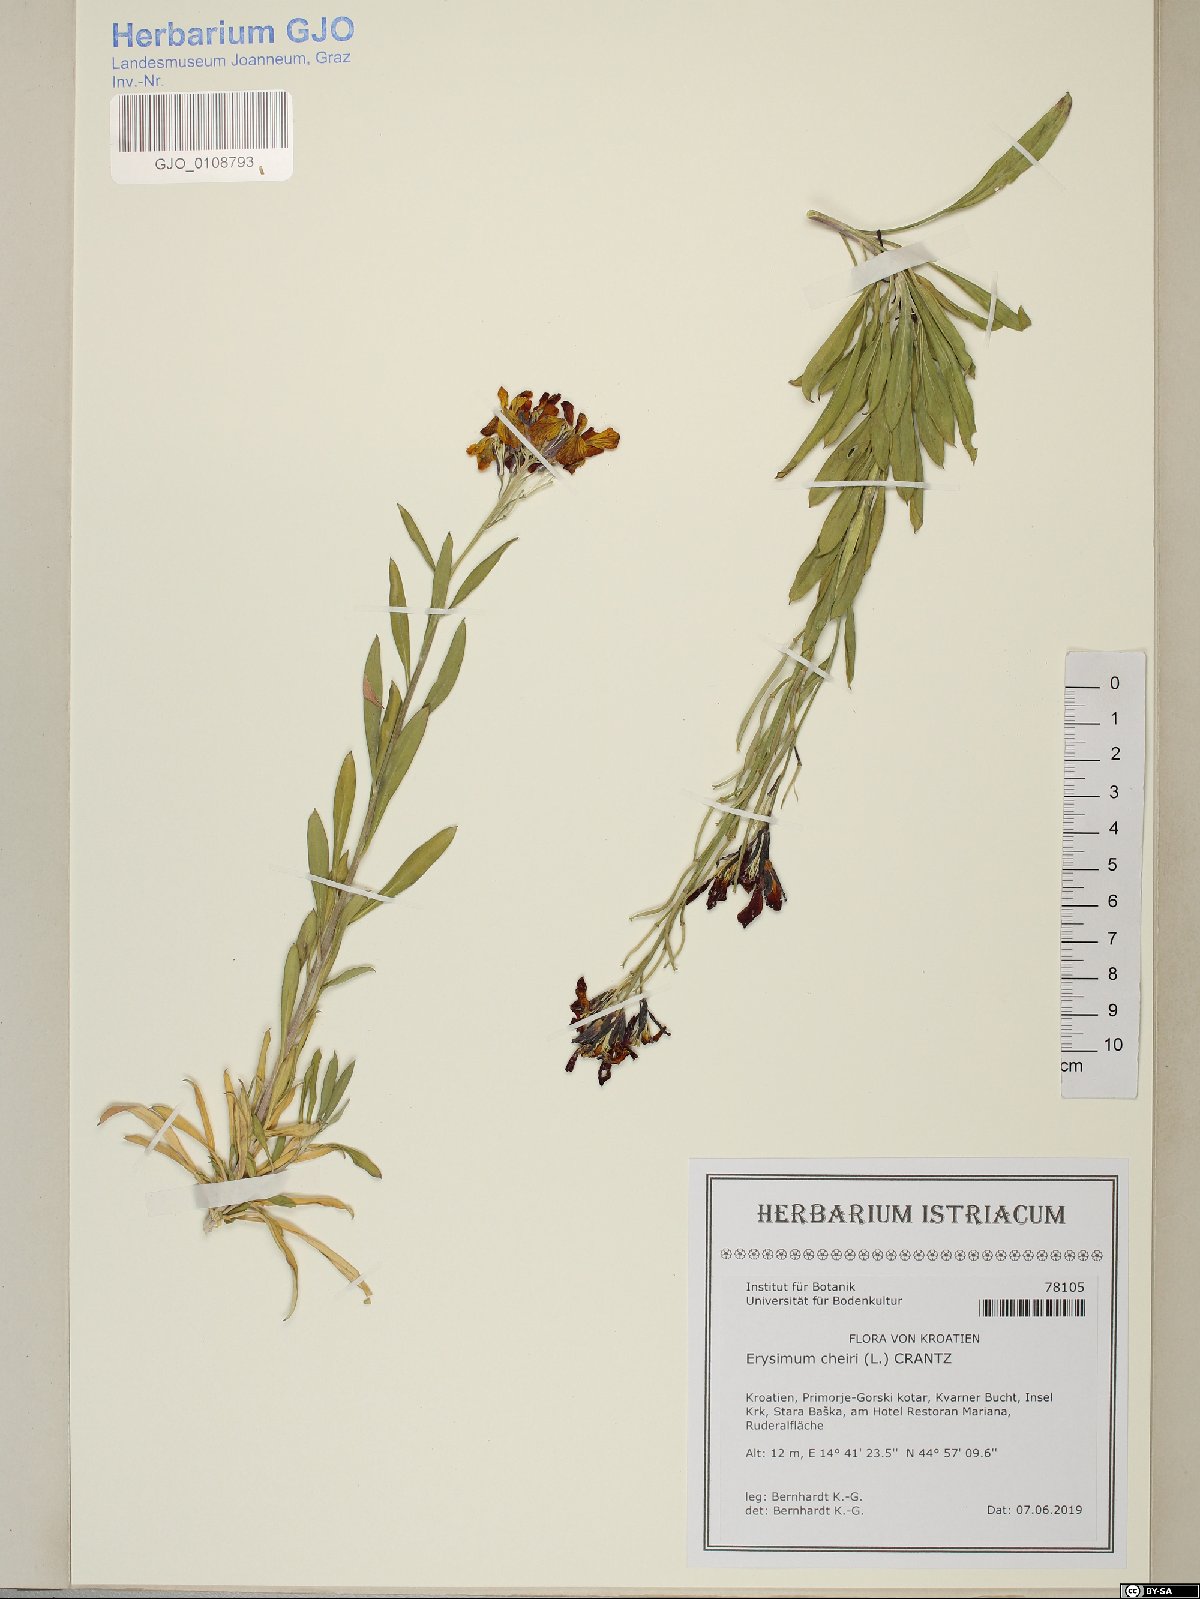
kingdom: Plantae
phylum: Tracheophyta
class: Magnoliopsida
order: Brassicales
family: Brassicaceae
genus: Erysimum
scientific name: Erysimum cheiri
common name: Wallflower
